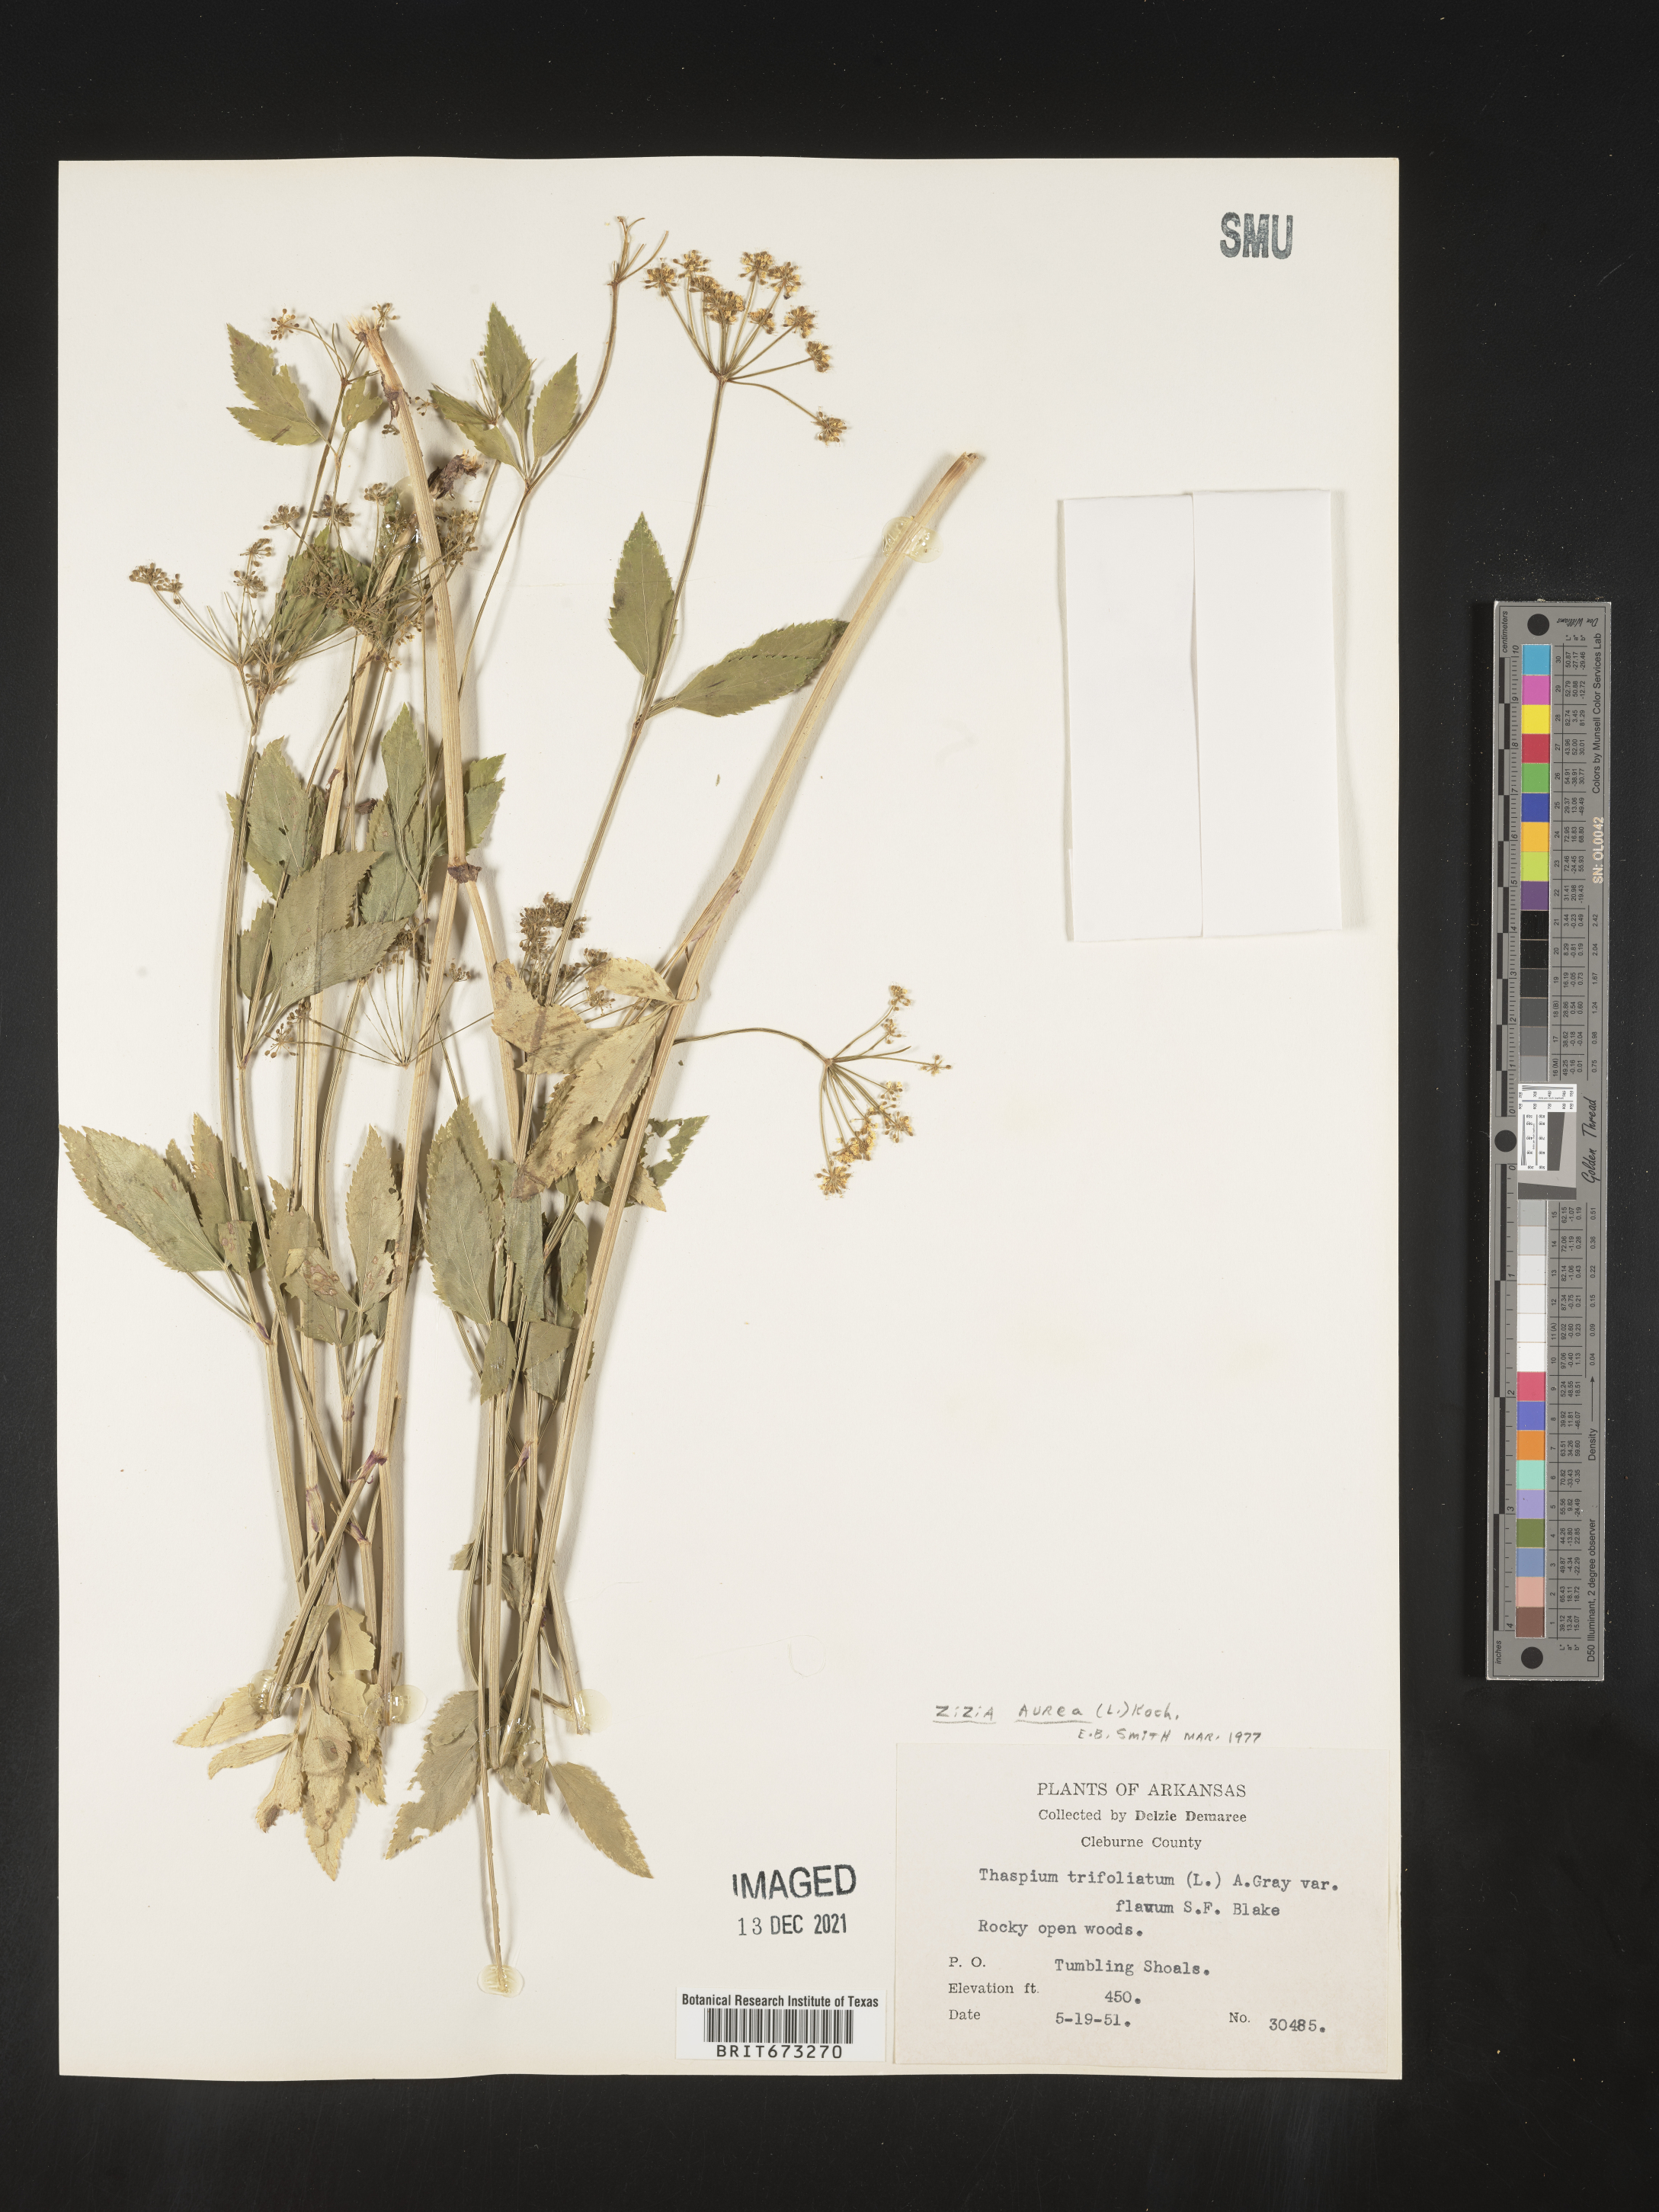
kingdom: Plantae
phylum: Tracheophyta
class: Magnoliopsida
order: Apiales
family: Apiaceae
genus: Zizia
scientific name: Zizia aurea
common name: Golden alexanders
